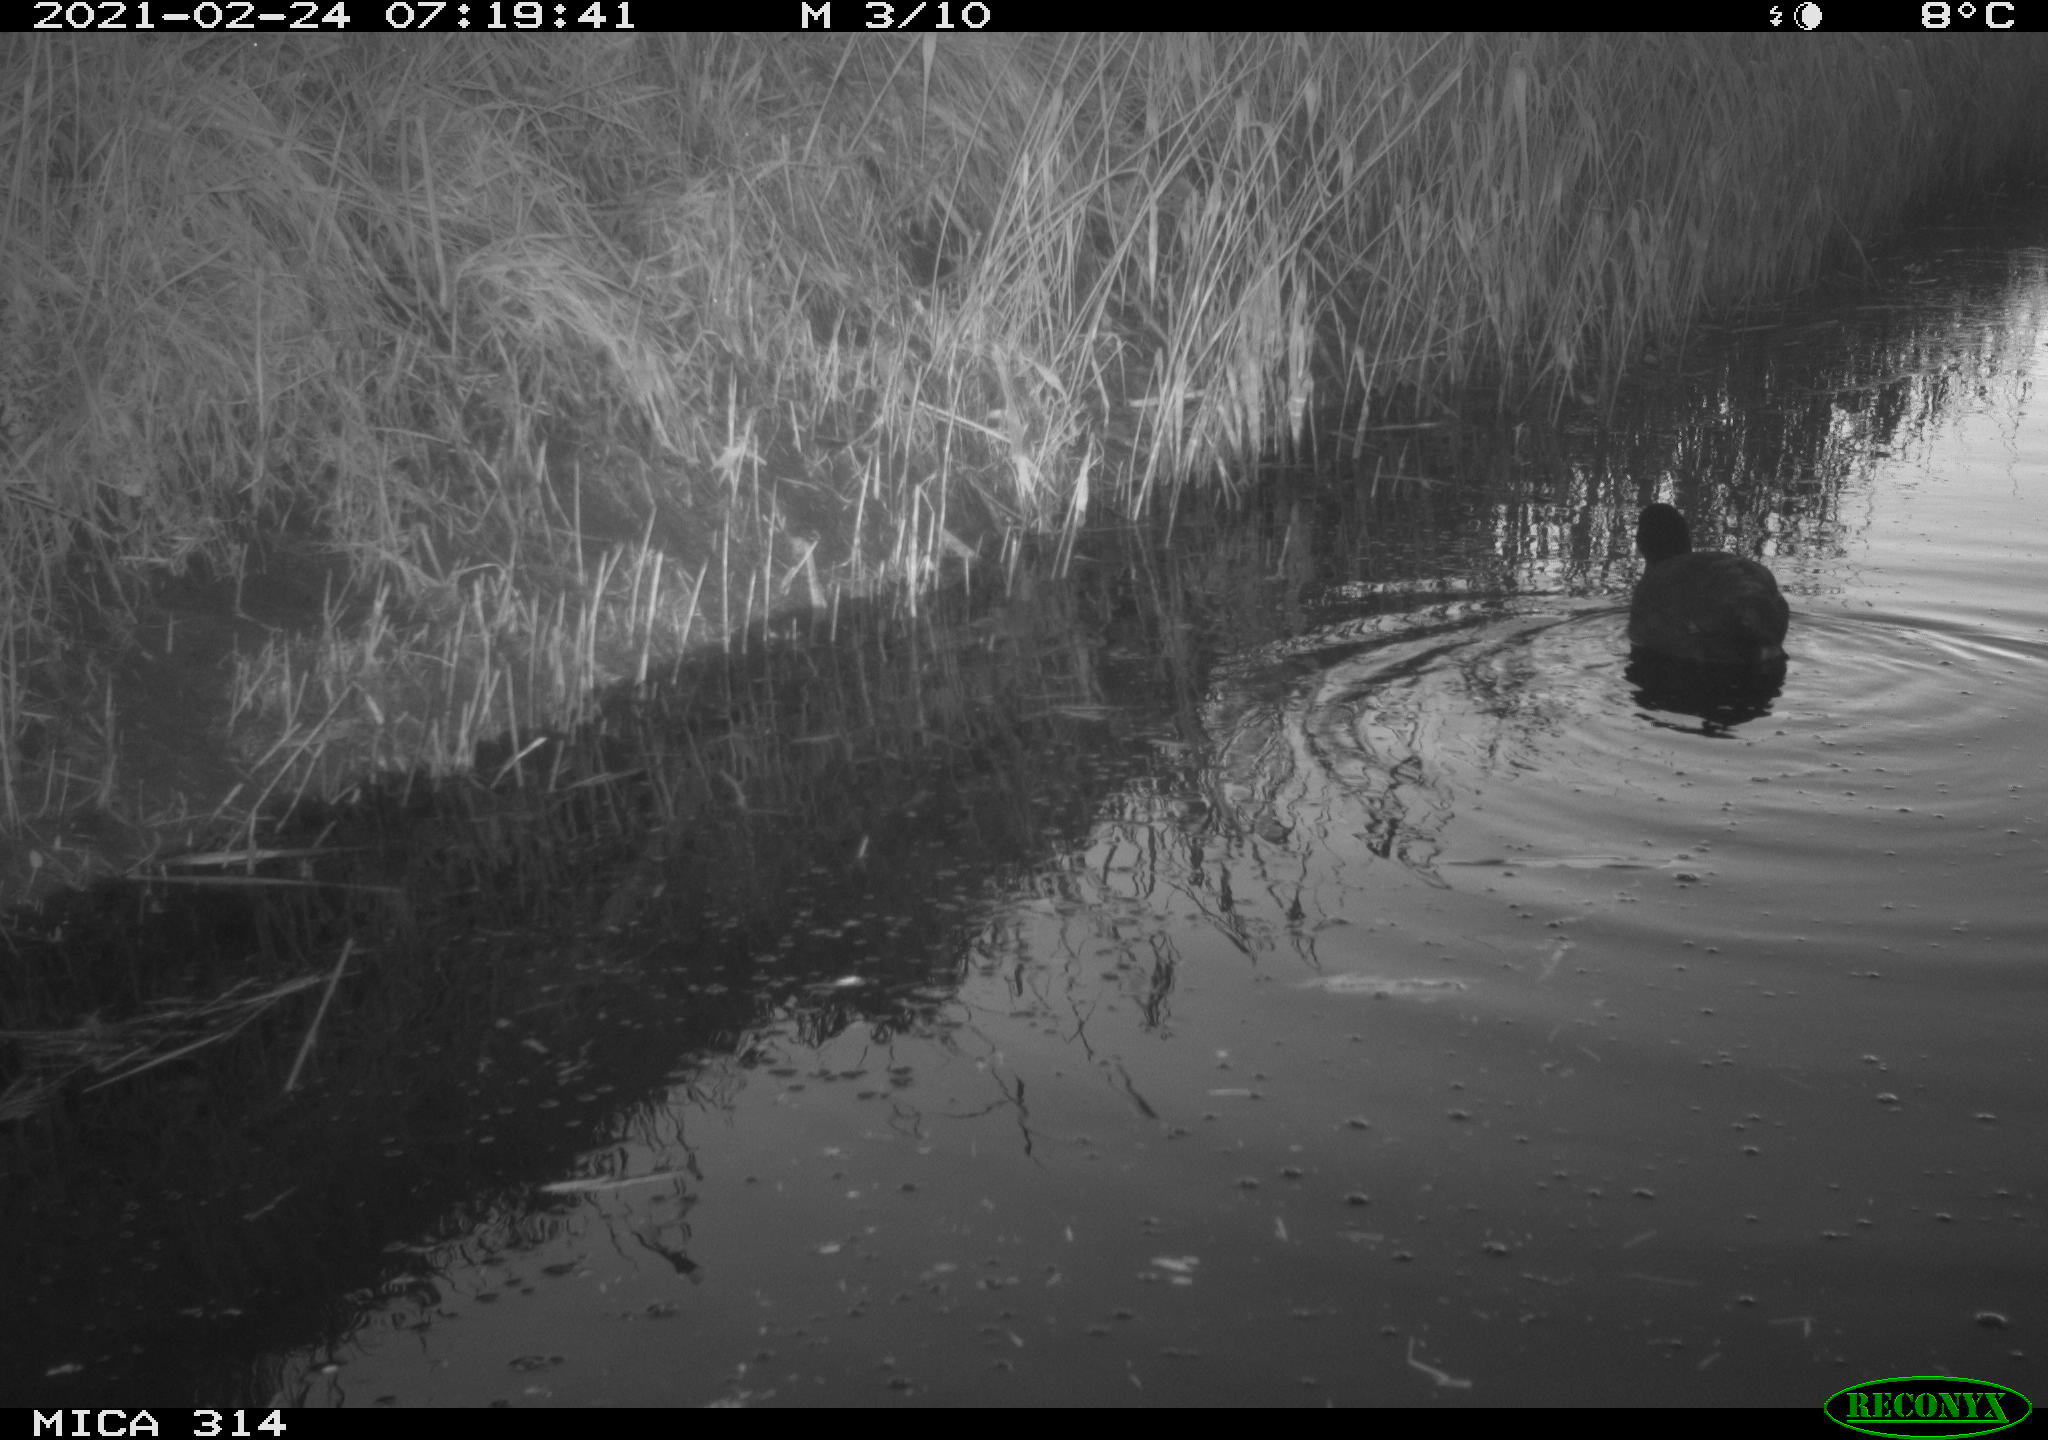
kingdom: Animalia
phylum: Chordata
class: Aves
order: Gruiformes
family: Rallidae
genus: Gallinula
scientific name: Gallinula chloropus
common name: Common moorhen
